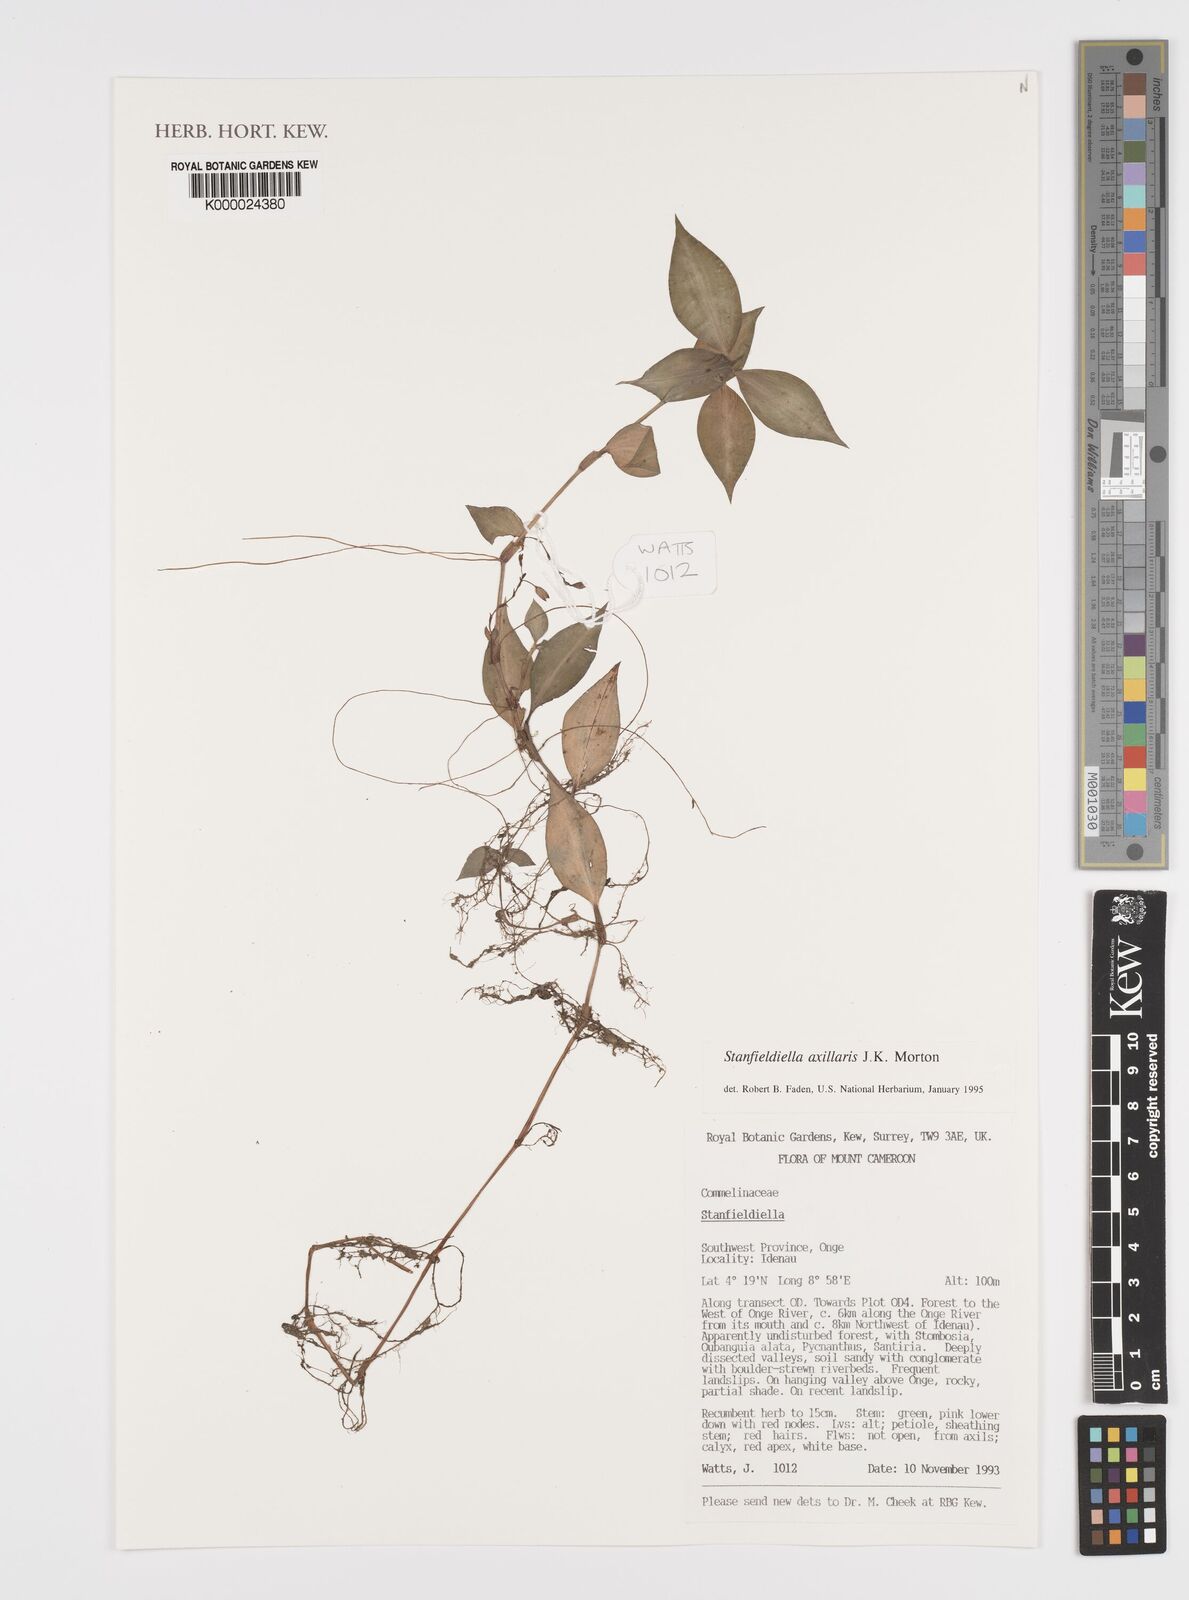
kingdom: Plantae
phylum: Tracheophyta
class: Liliopsida
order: Commelinales
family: Commelinaceae
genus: Stanfieldiella
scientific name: Stanfieldiella axillaris
